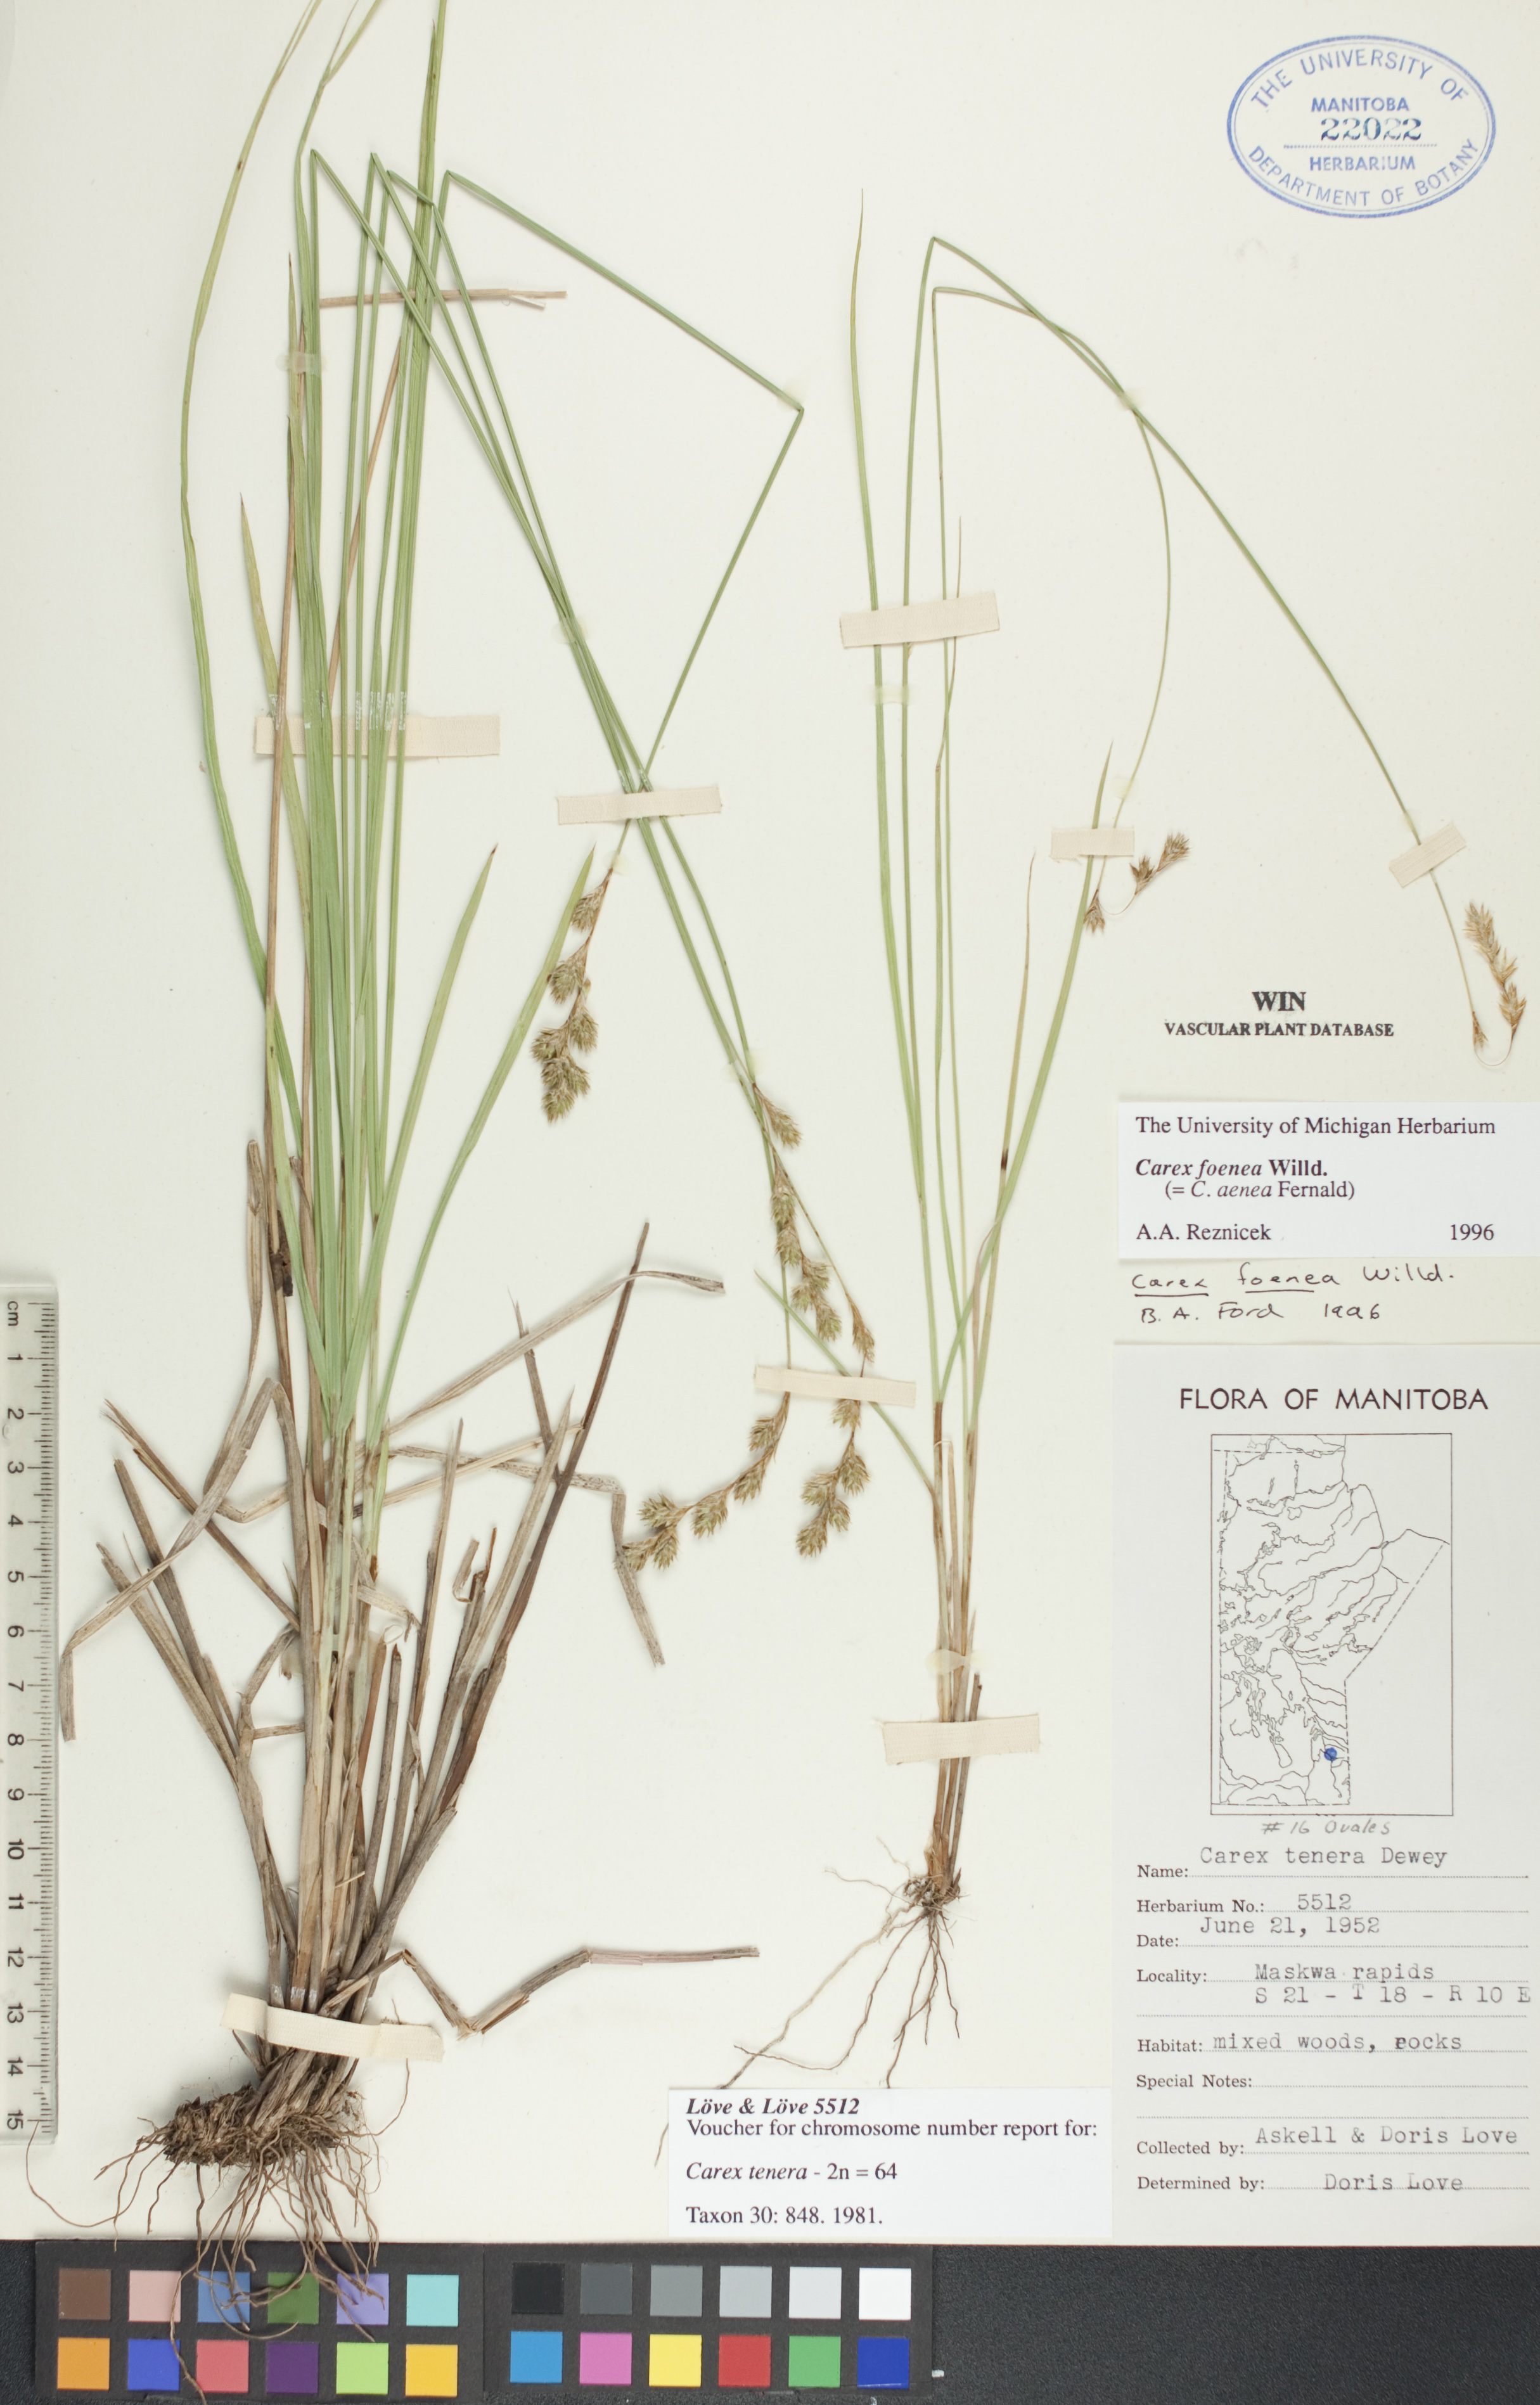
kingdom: Plantae
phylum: Tracheophyta
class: Liliopsida
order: Poales
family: Cyperaceae
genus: Carex
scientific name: Carex foenea
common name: Bronze sedge
